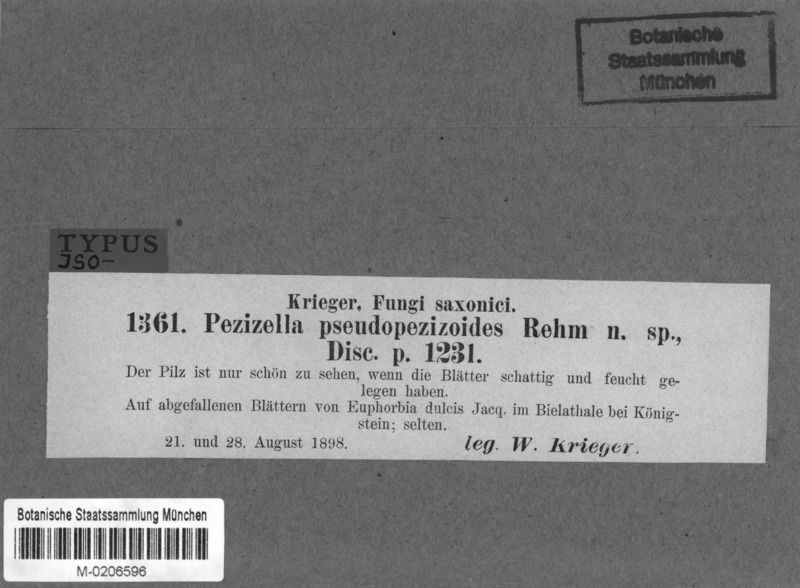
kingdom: Fungi
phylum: Ascomycota
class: Leotiomycetes
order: Helotiales
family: Hyaloscyphaceae
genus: Urceolella
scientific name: Urceolella pseudopezizoides
